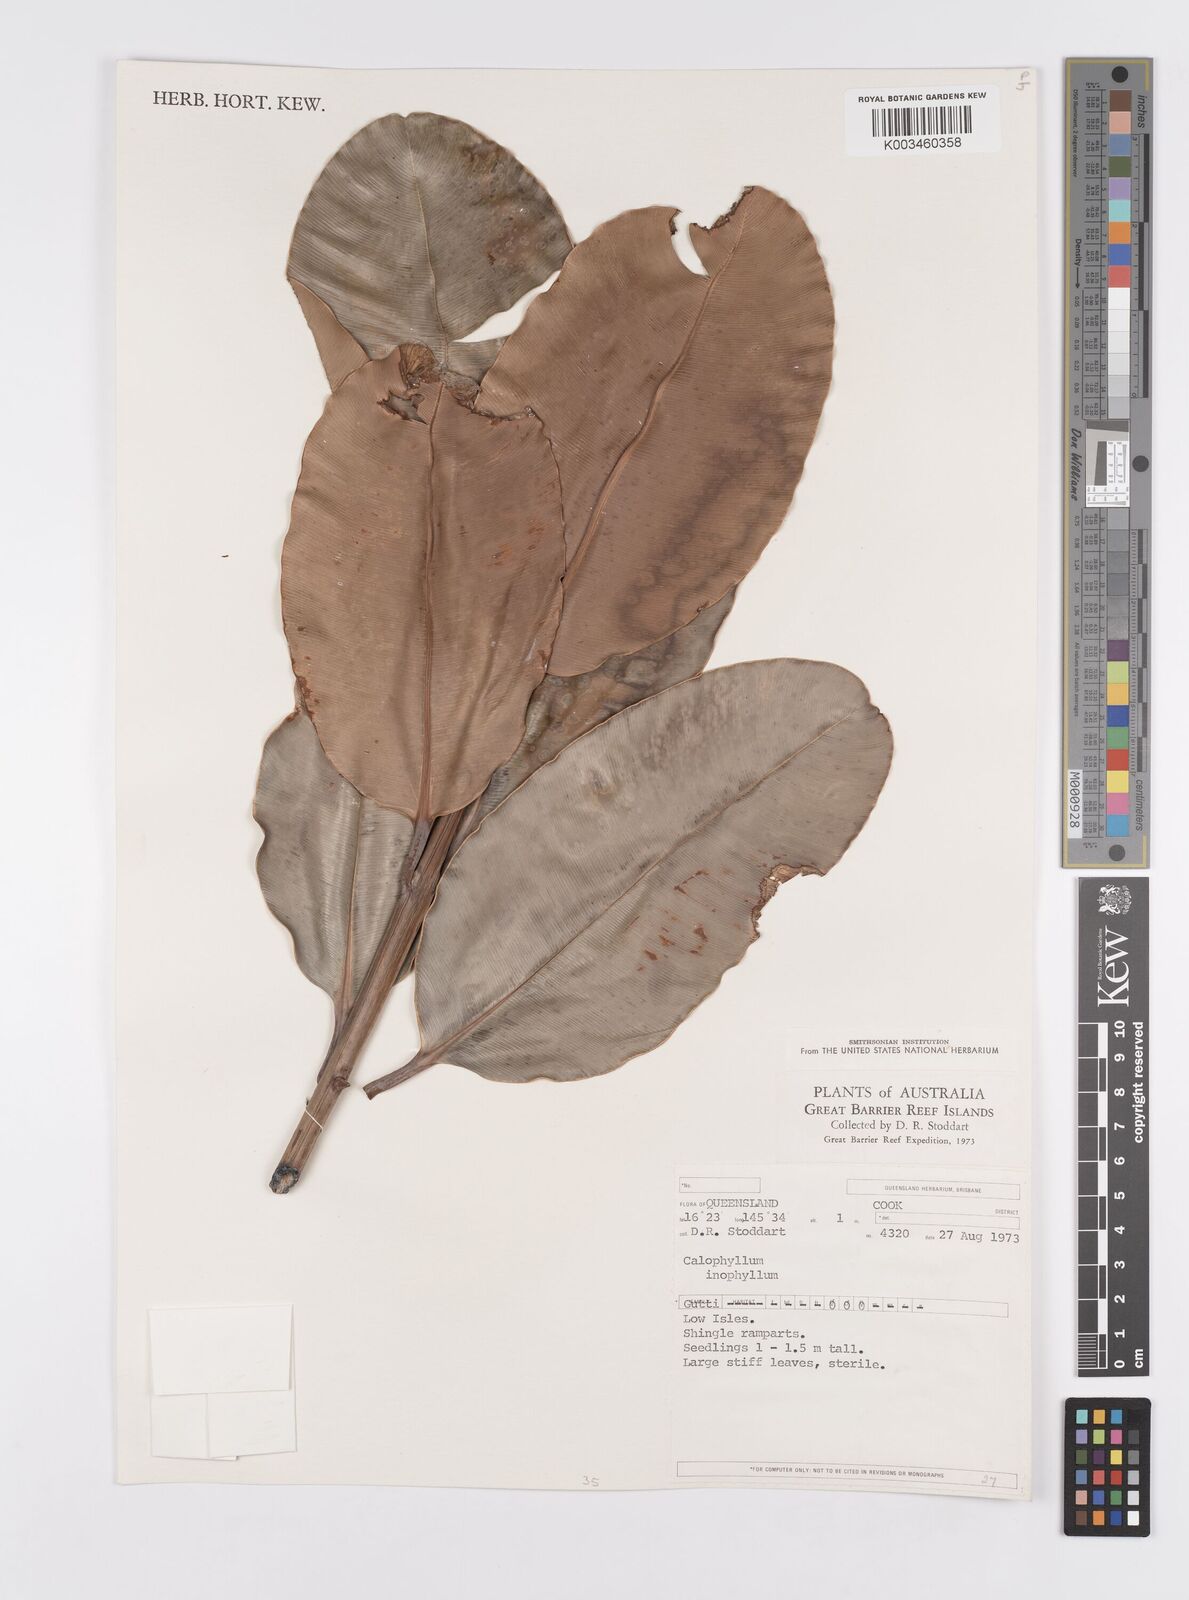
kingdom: Plantae
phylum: Tracheophyta
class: Magnoliopsida
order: Malpighiales
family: Calophyllaceae
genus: Calophyllum
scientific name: Calophyllum inophyllum
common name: Alexandrian laurel
